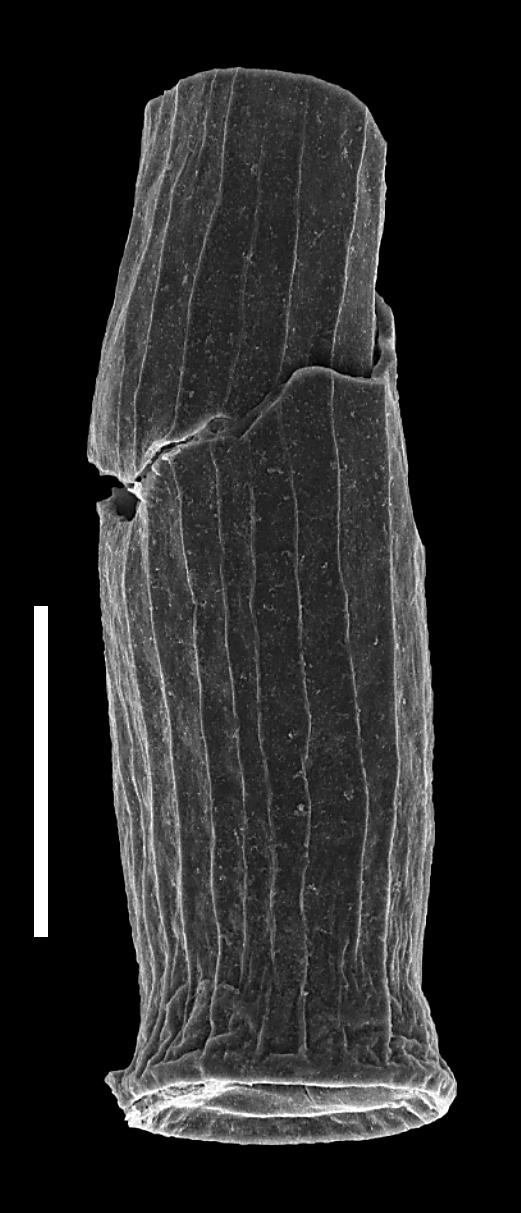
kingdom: Animalia
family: Conochitinidae
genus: Laufeldochitina
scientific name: Laufeldochitina
